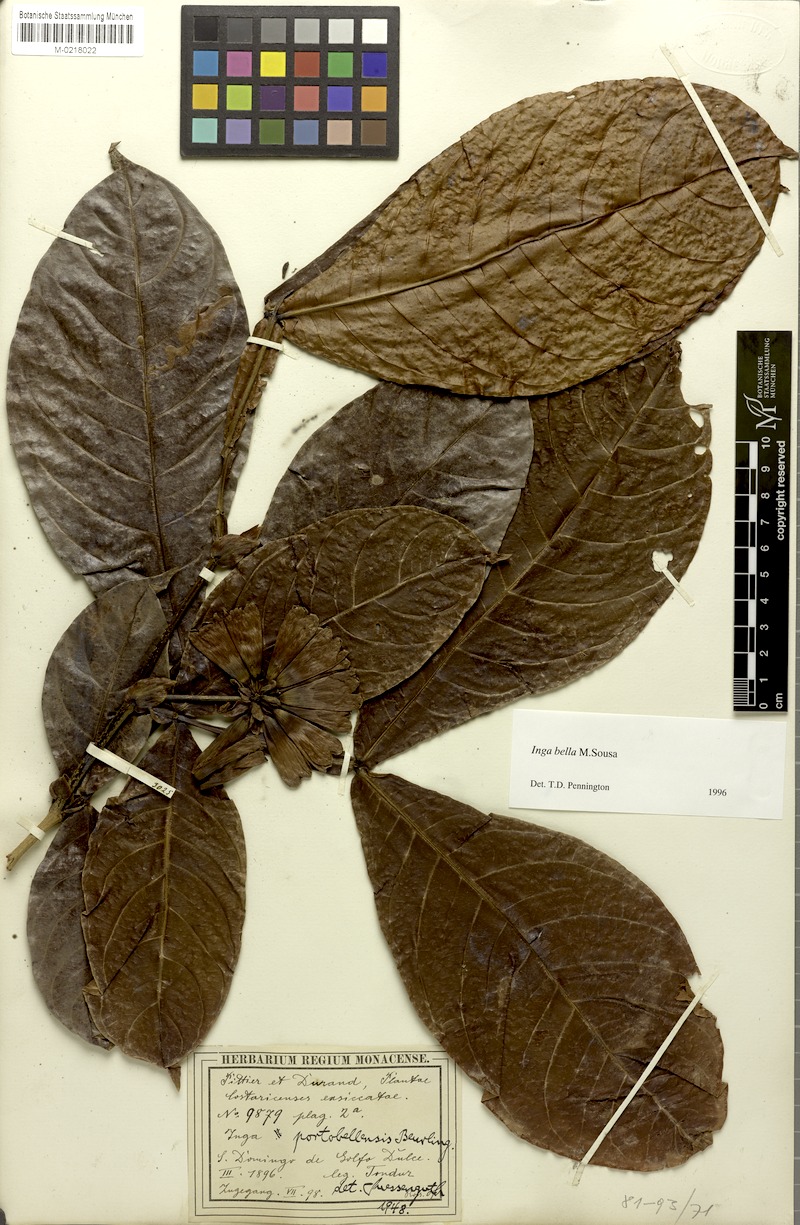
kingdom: Plantae
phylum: Tracheophyta
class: Magnoliopsida
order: Fabales
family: Fabaceae
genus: Inga
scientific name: Inga bella
